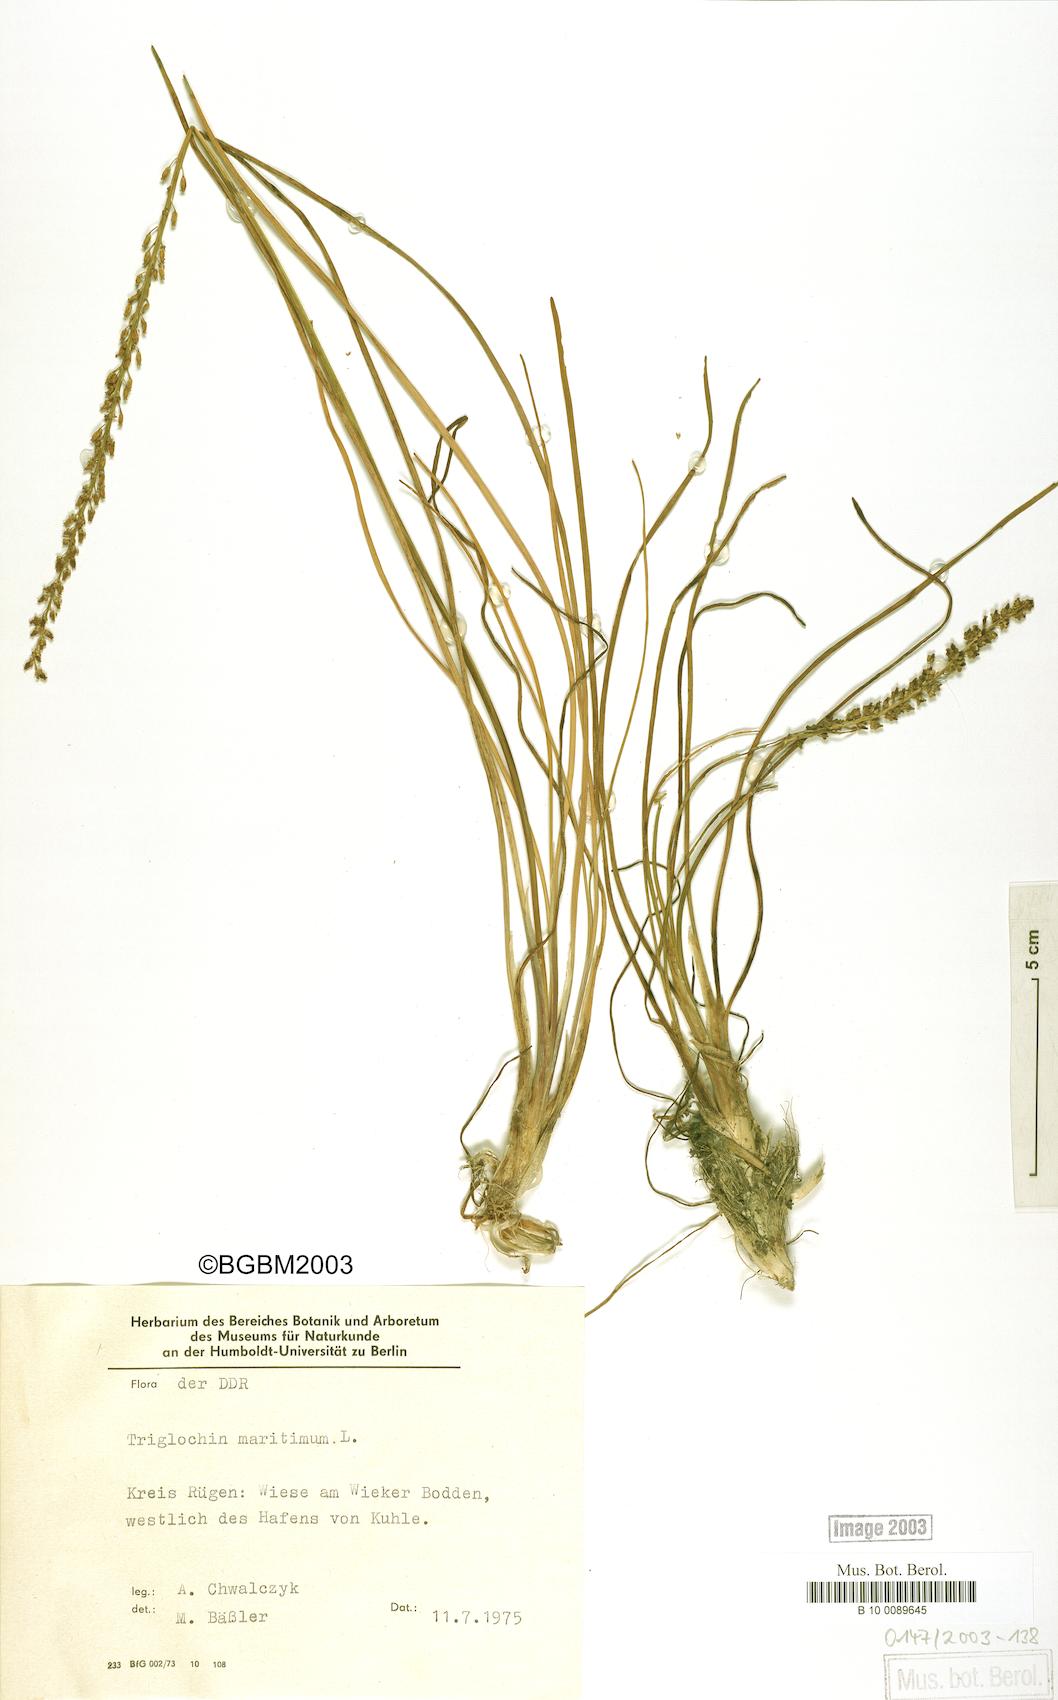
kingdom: Plantae
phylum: Tracheophyta
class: Liliopsida
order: Alismatales
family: Juncaginaceae
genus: Triglochin
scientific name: Triglochin maritima
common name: Sea arrowgrass
